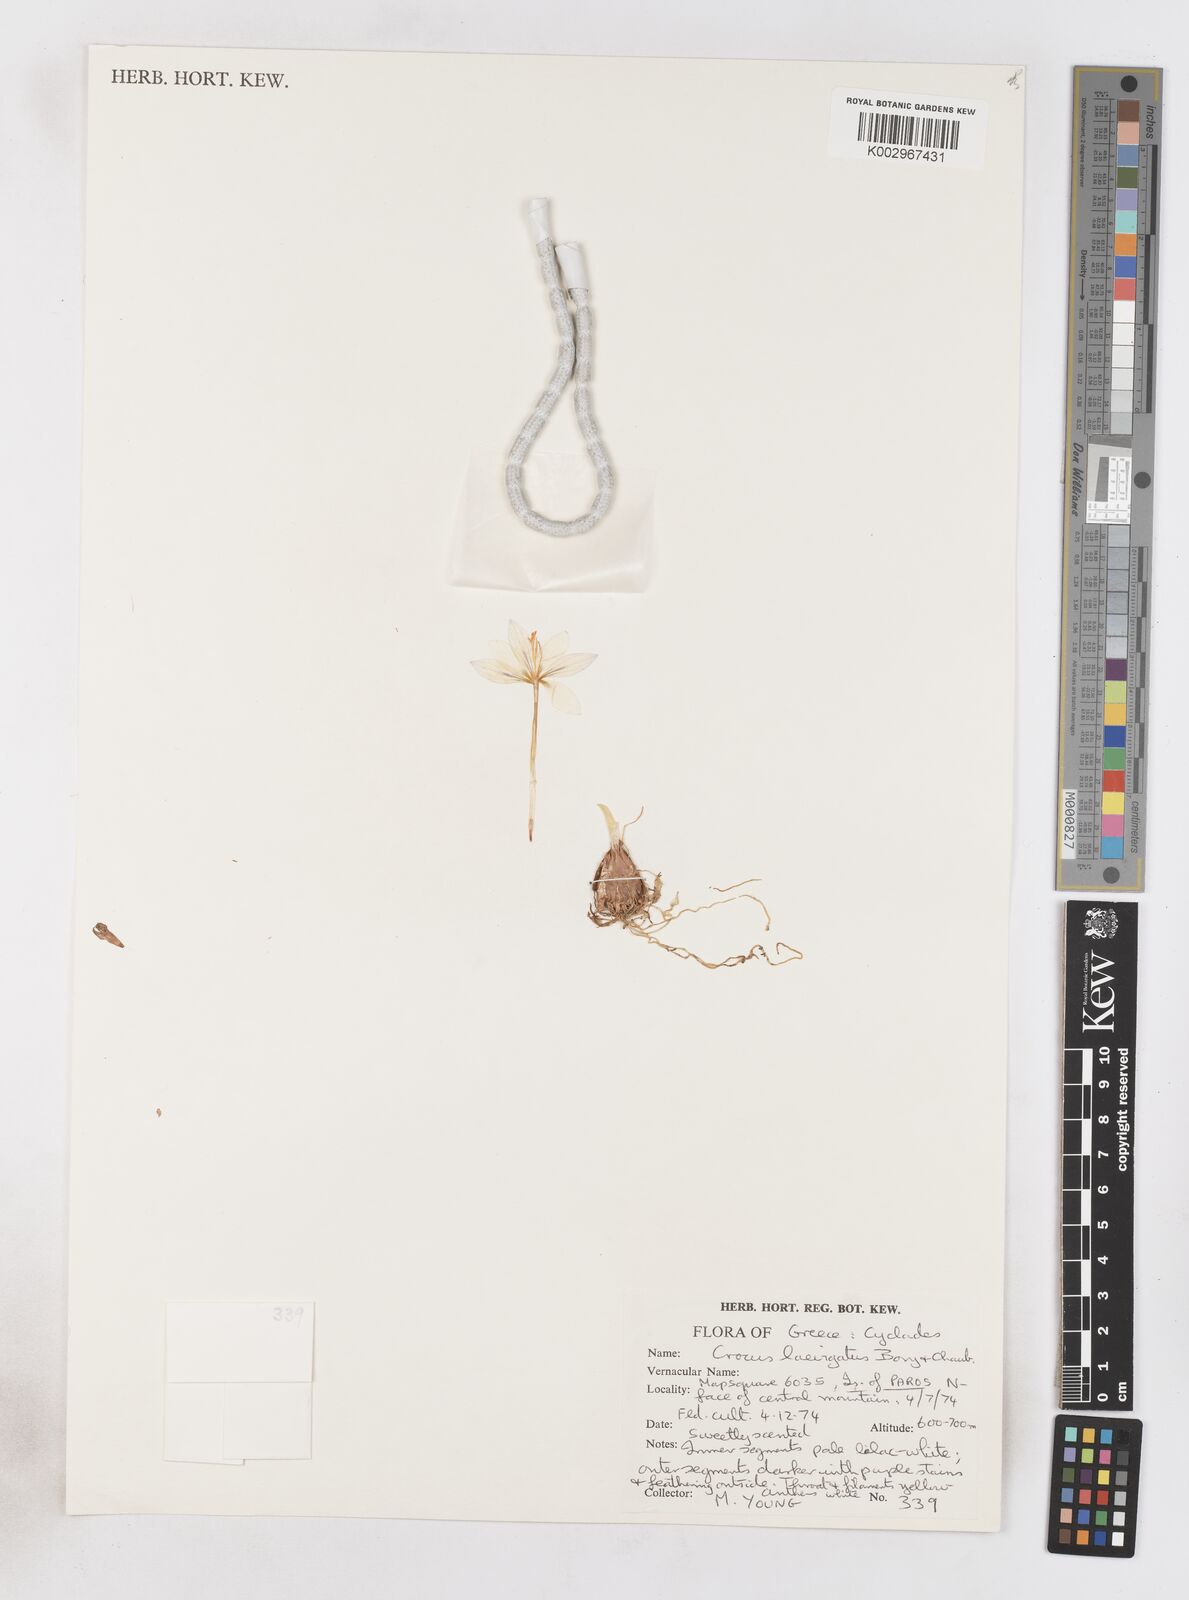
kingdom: Plantae
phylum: Tracheophyta
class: Liliopsida
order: Asparagales
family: Iridaceae
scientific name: Iridaceae
